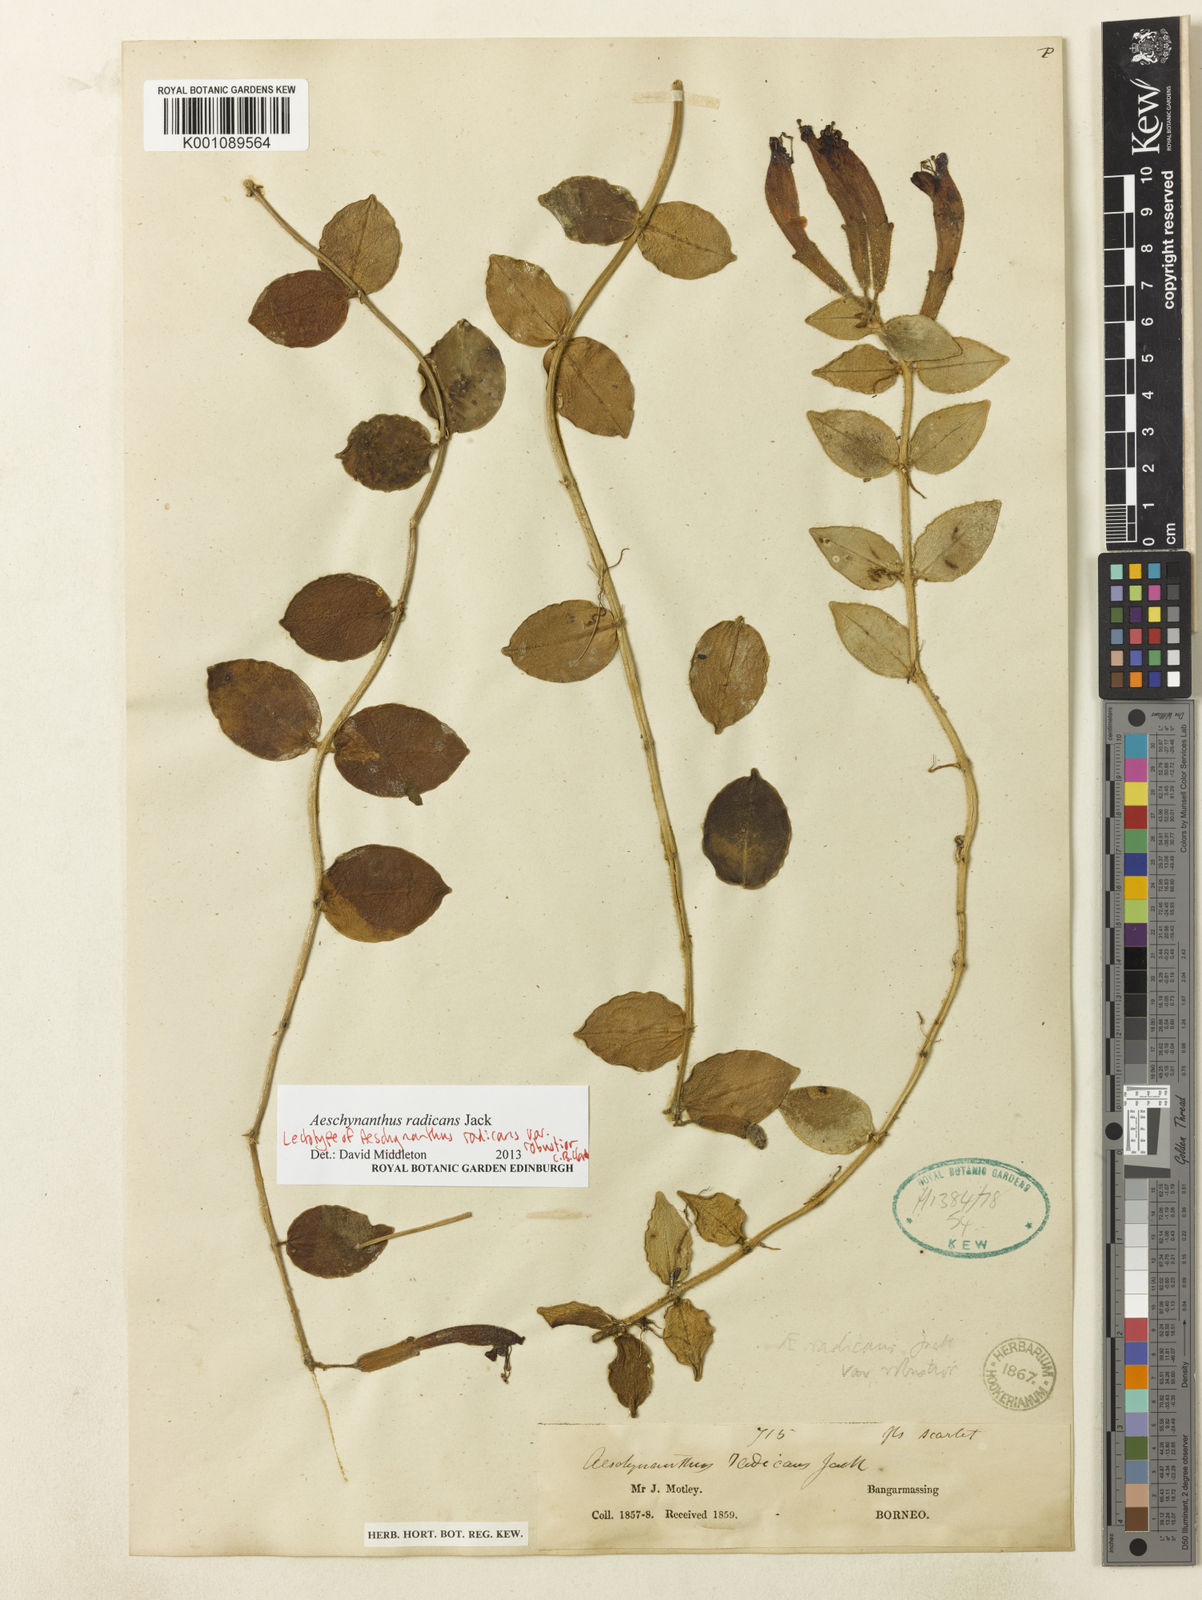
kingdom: Plantae
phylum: Tracheophyta
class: Magnoliopsida
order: Lamiales
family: Gesneriaceae
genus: Aeschynanthus
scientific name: Aeschynanthus radicans
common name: Lipstickplant
